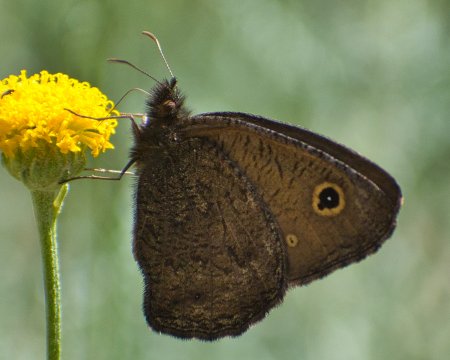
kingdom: Animalia
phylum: Arthropoda
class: Insecta
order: Lepidoptera
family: Nymphalidae
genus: Cercyonis
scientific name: Cercyonis oetus
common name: Small Wood-Nymph
